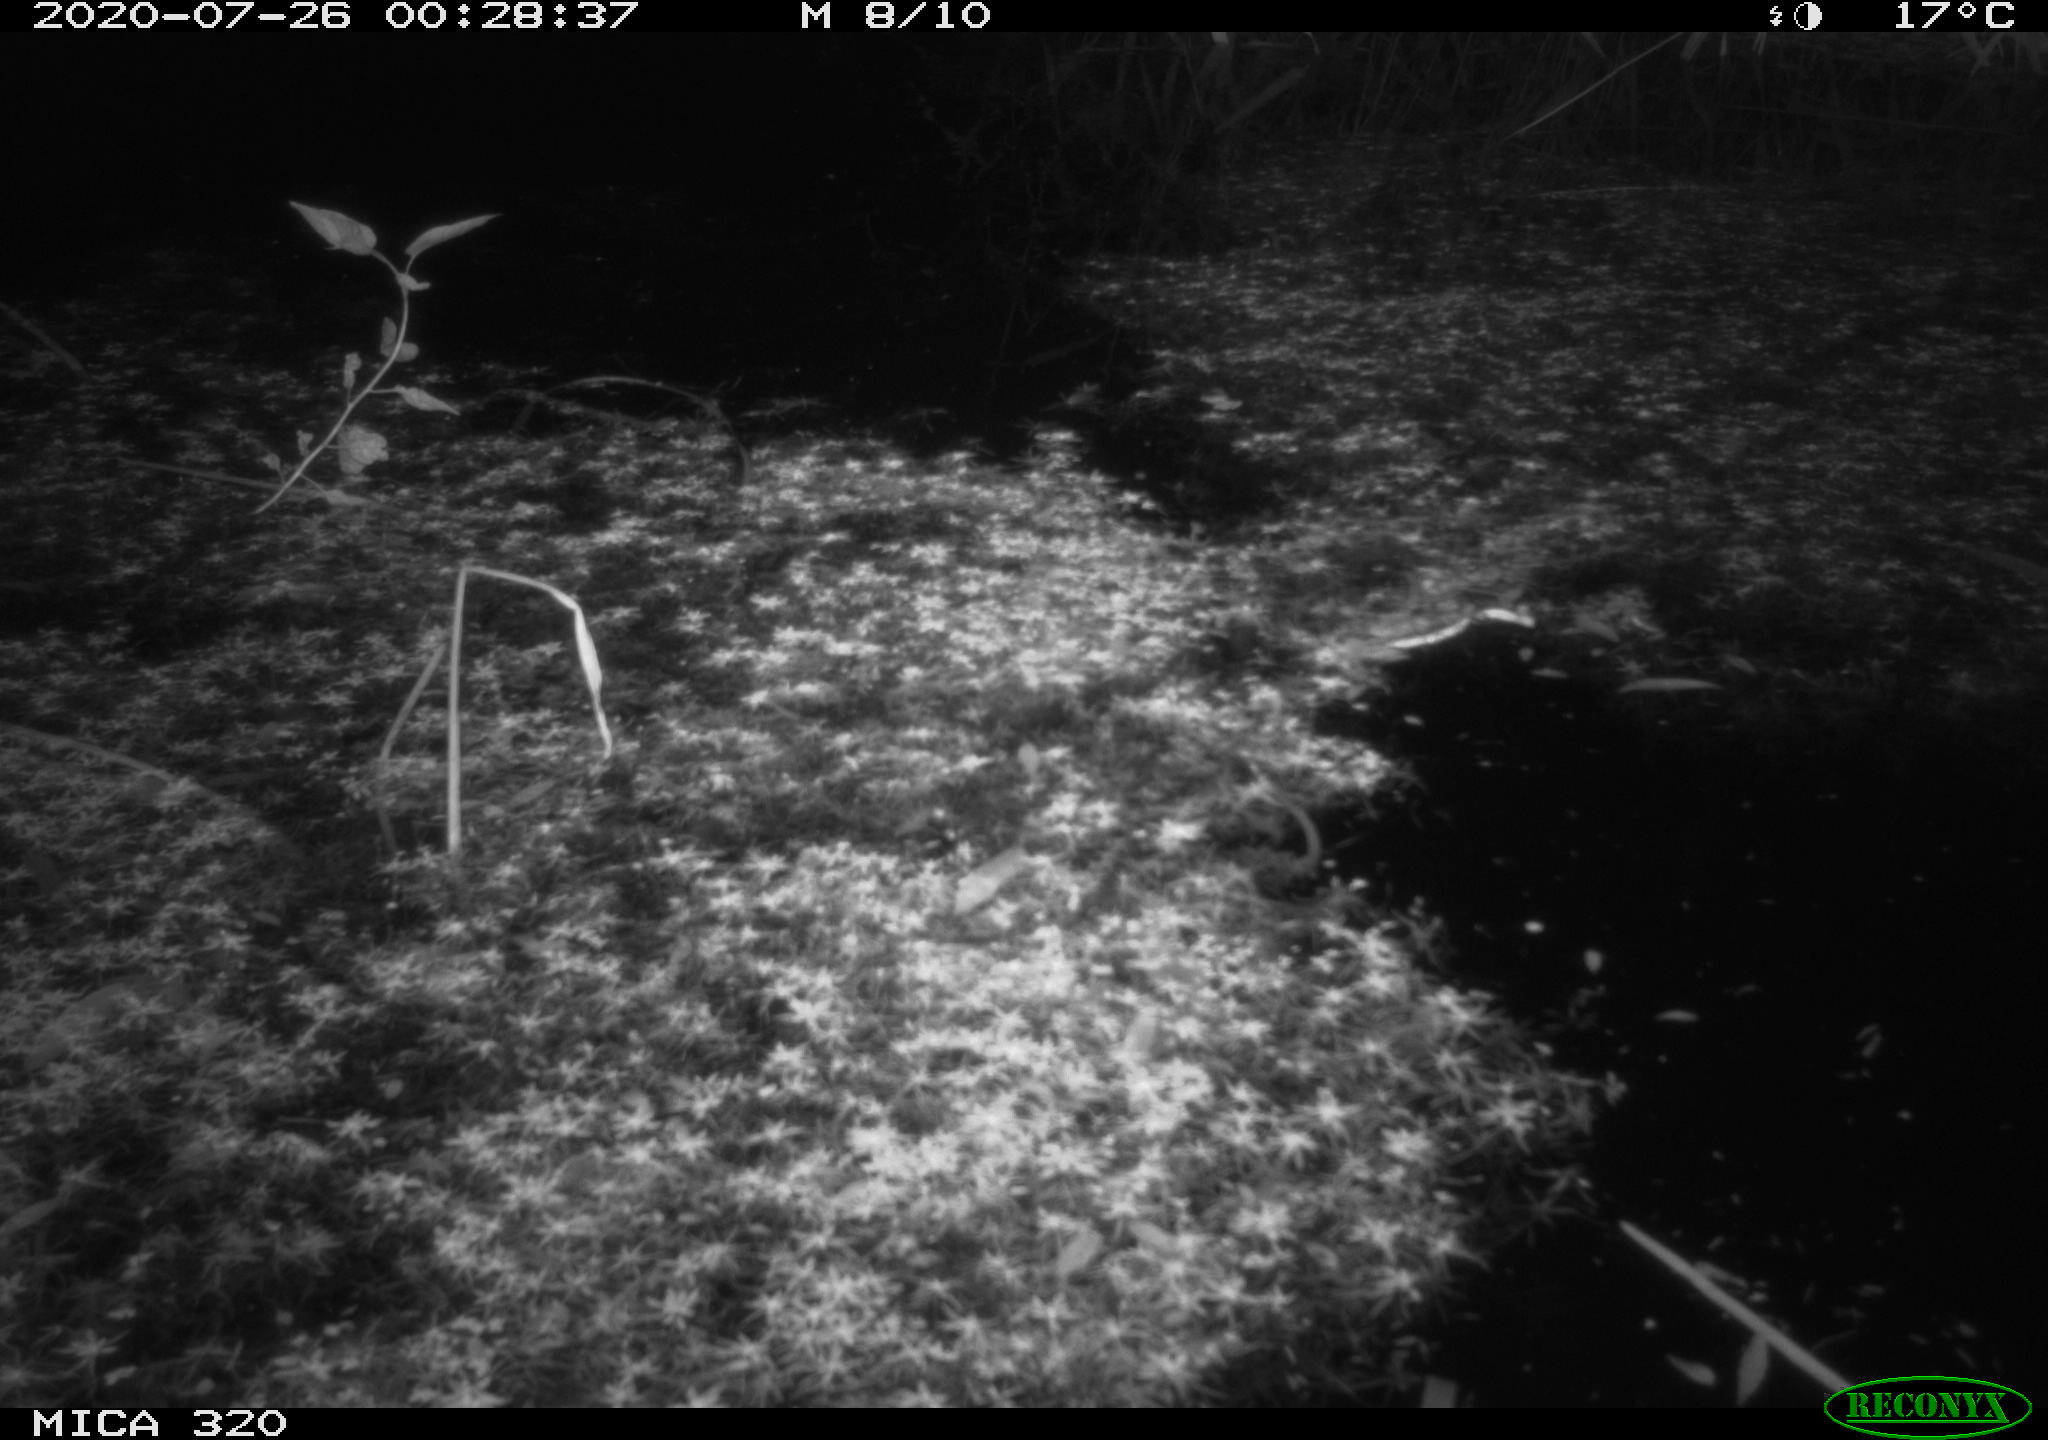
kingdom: Animalia
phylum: Chordata
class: Mammalia
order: Rodentia
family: Muridae
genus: Rattus
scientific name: Rattus norvegicus
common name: Brown rat
